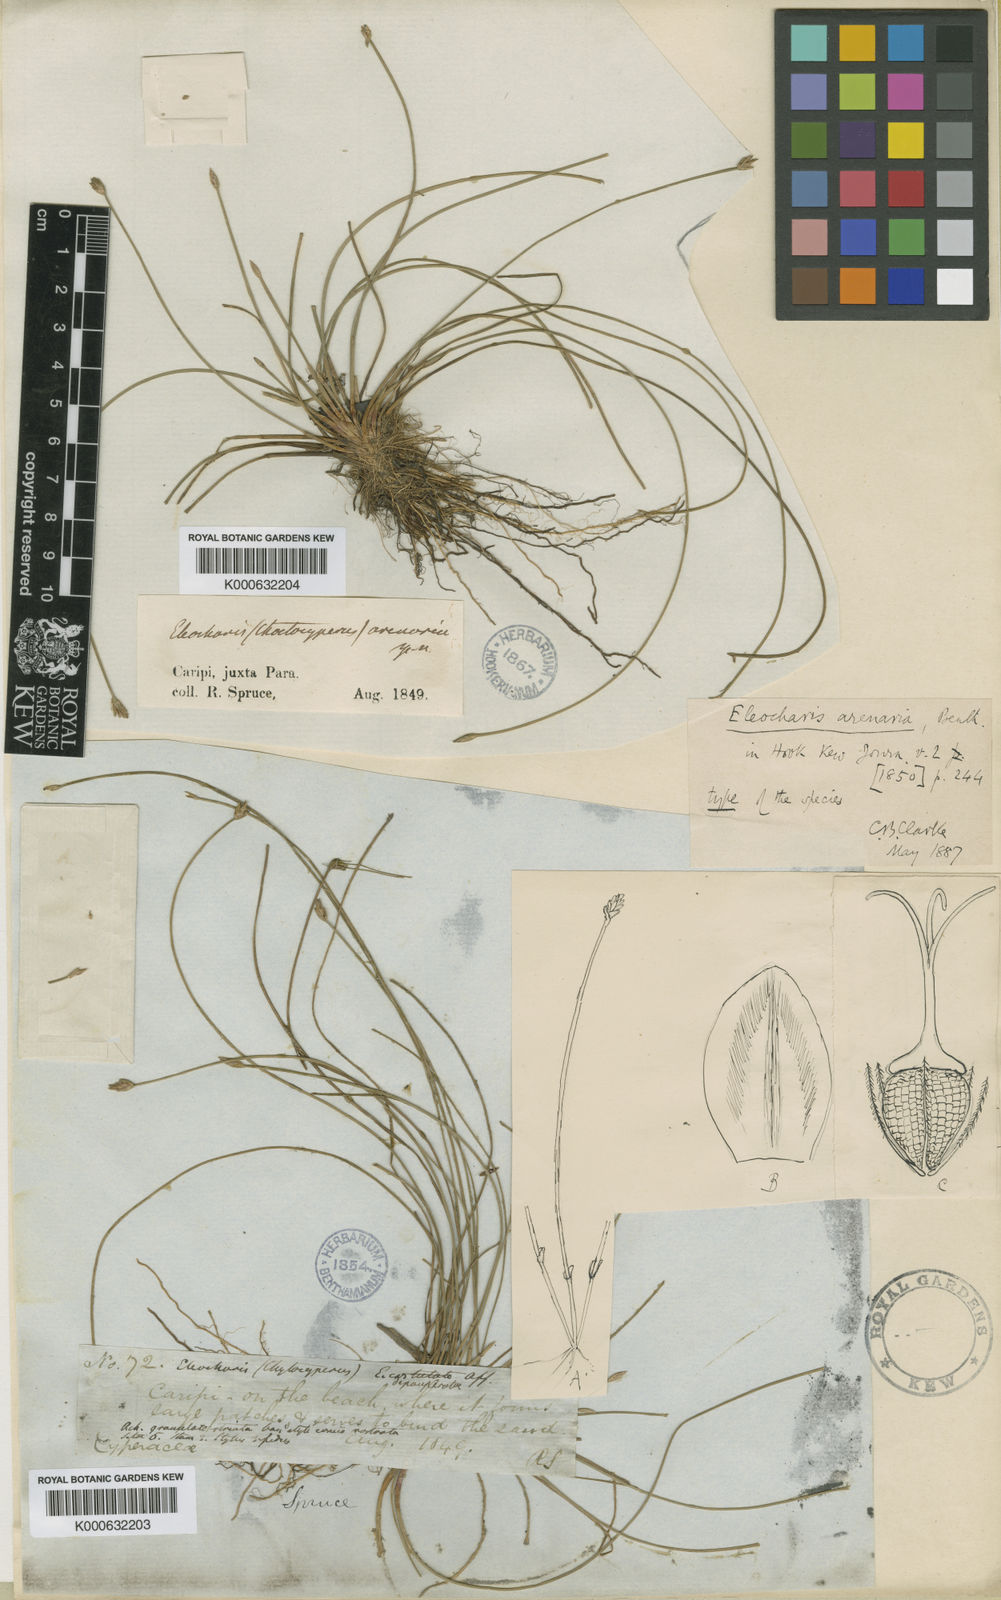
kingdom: Plantae
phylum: Tracheophyta
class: Liliopsida
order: Poales
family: Cyperaceae
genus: Eleocharis
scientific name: Eleocharis glauca
